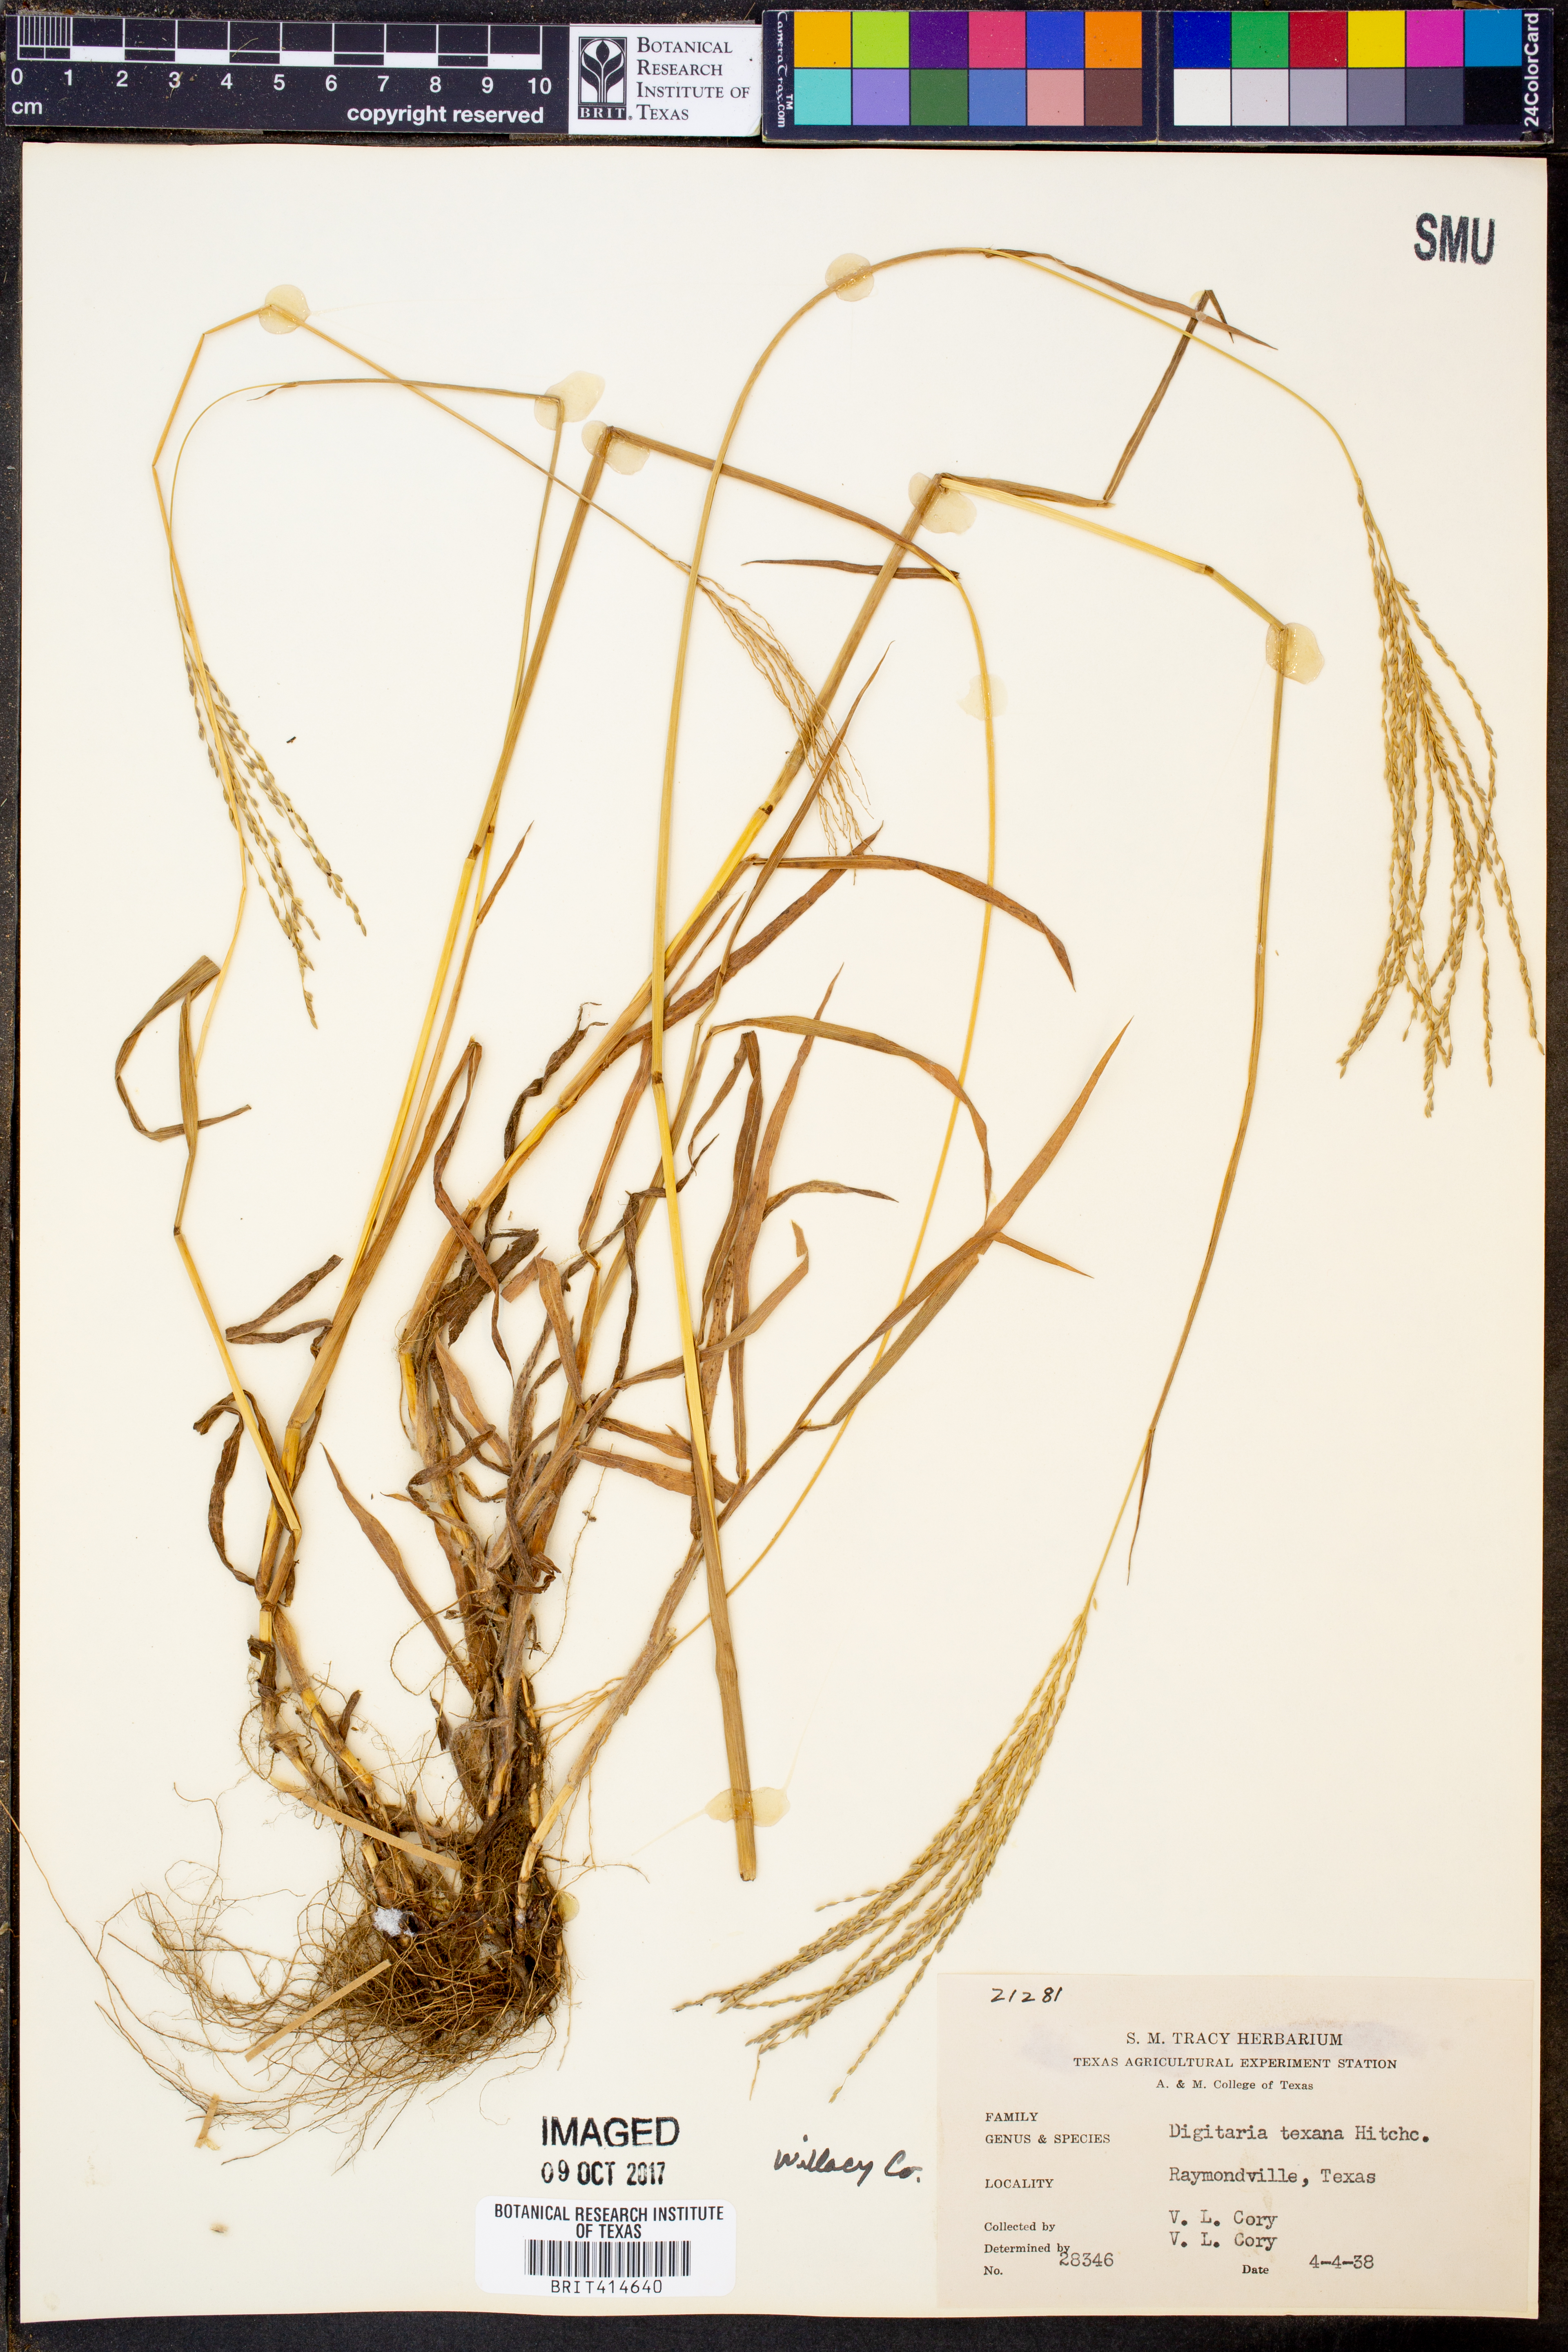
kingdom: Plantae
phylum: Tracheophyta
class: Liliopsida
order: Poales
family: Poaceae
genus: Digitaria
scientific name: Digitaria texana
